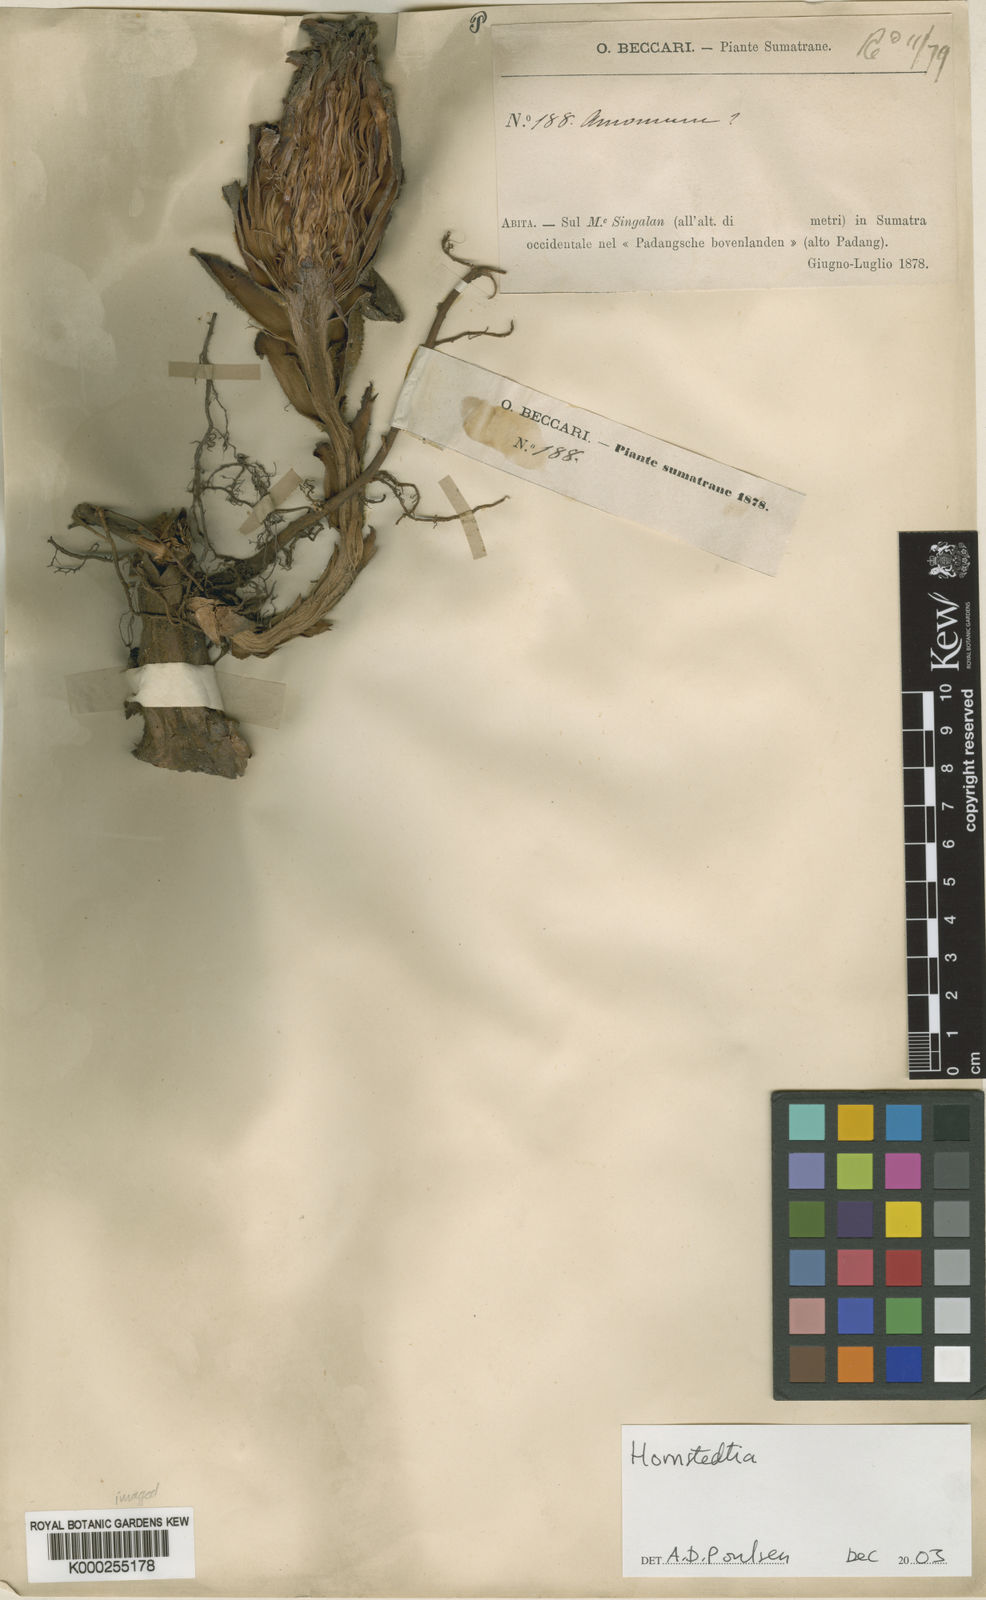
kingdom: Plantae
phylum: Tracheophyta
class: Liliopsida
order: Zingiberales
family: Zingiberaceae
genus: Hornstedtia
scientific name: Hornstedtia
